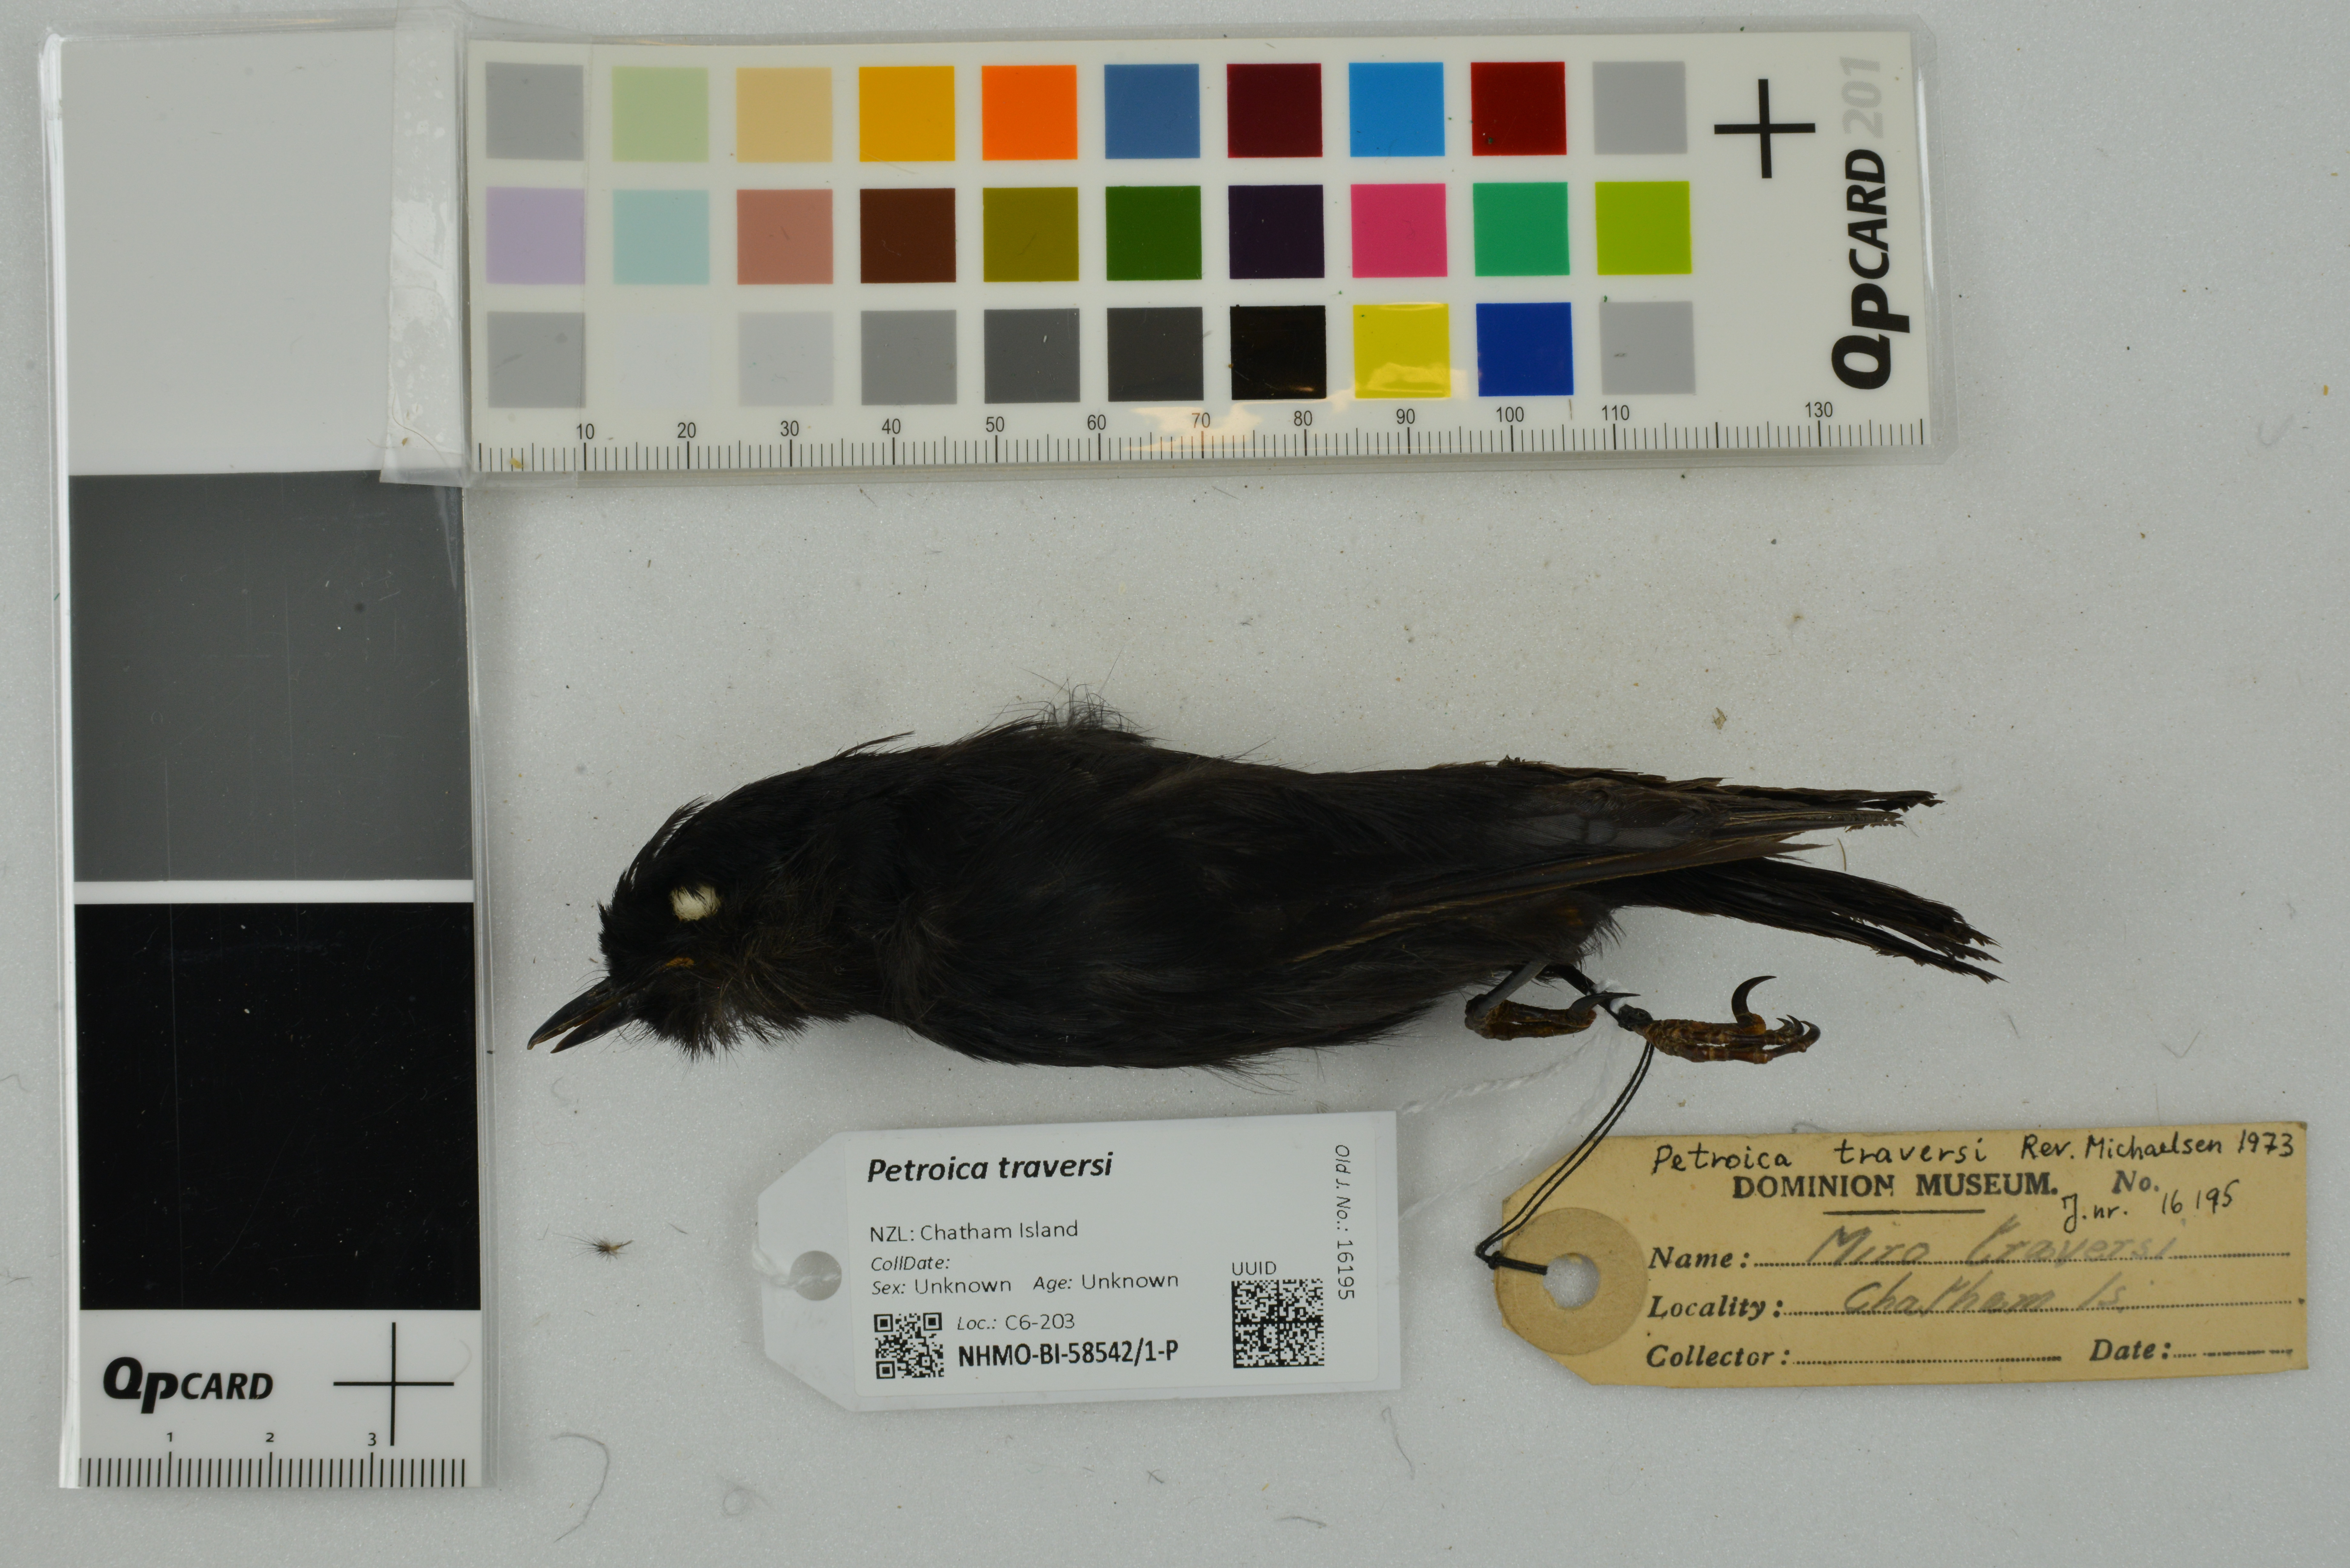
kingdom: Animalia
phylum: Chordata
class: Aves
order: Passeriformes
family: Petroicidae
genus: Petroica
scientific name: Petroica traversi
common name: Black robin
